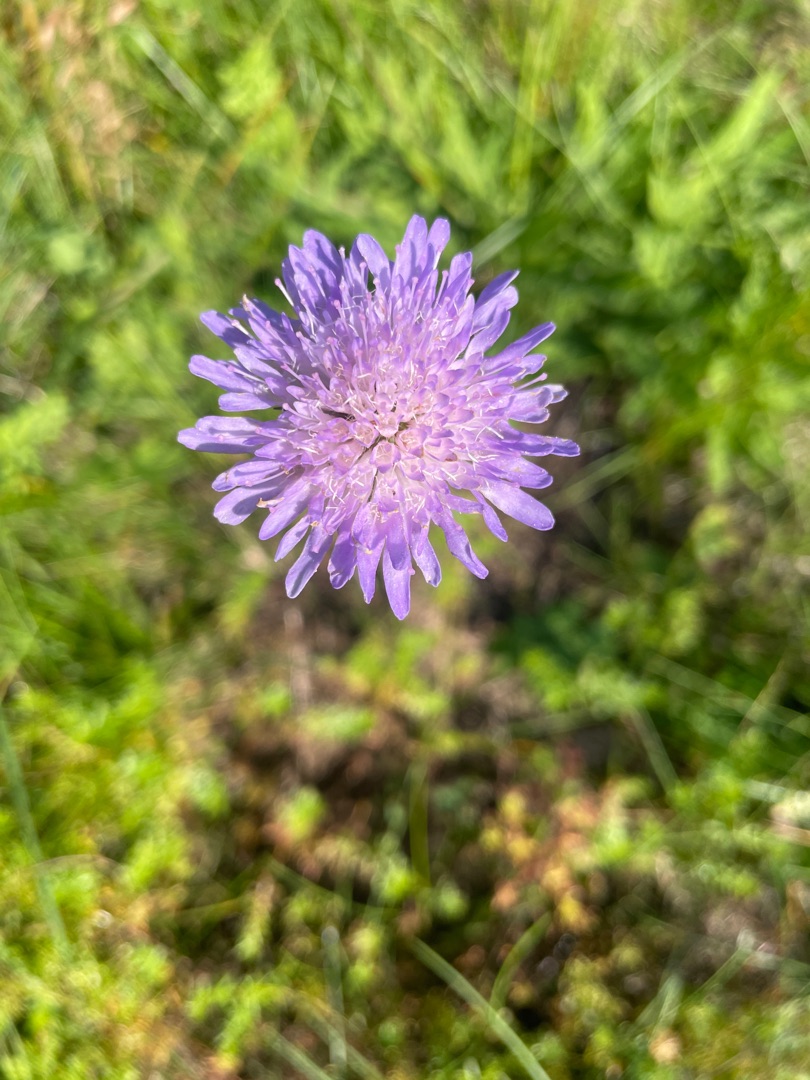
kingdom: Plantae
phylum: Tracheophyta
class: Magnoliopsida
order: Dipsacales
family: Caprifoliaceae
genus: Knautia
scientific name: Knautia arvensis
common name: Blåhat
